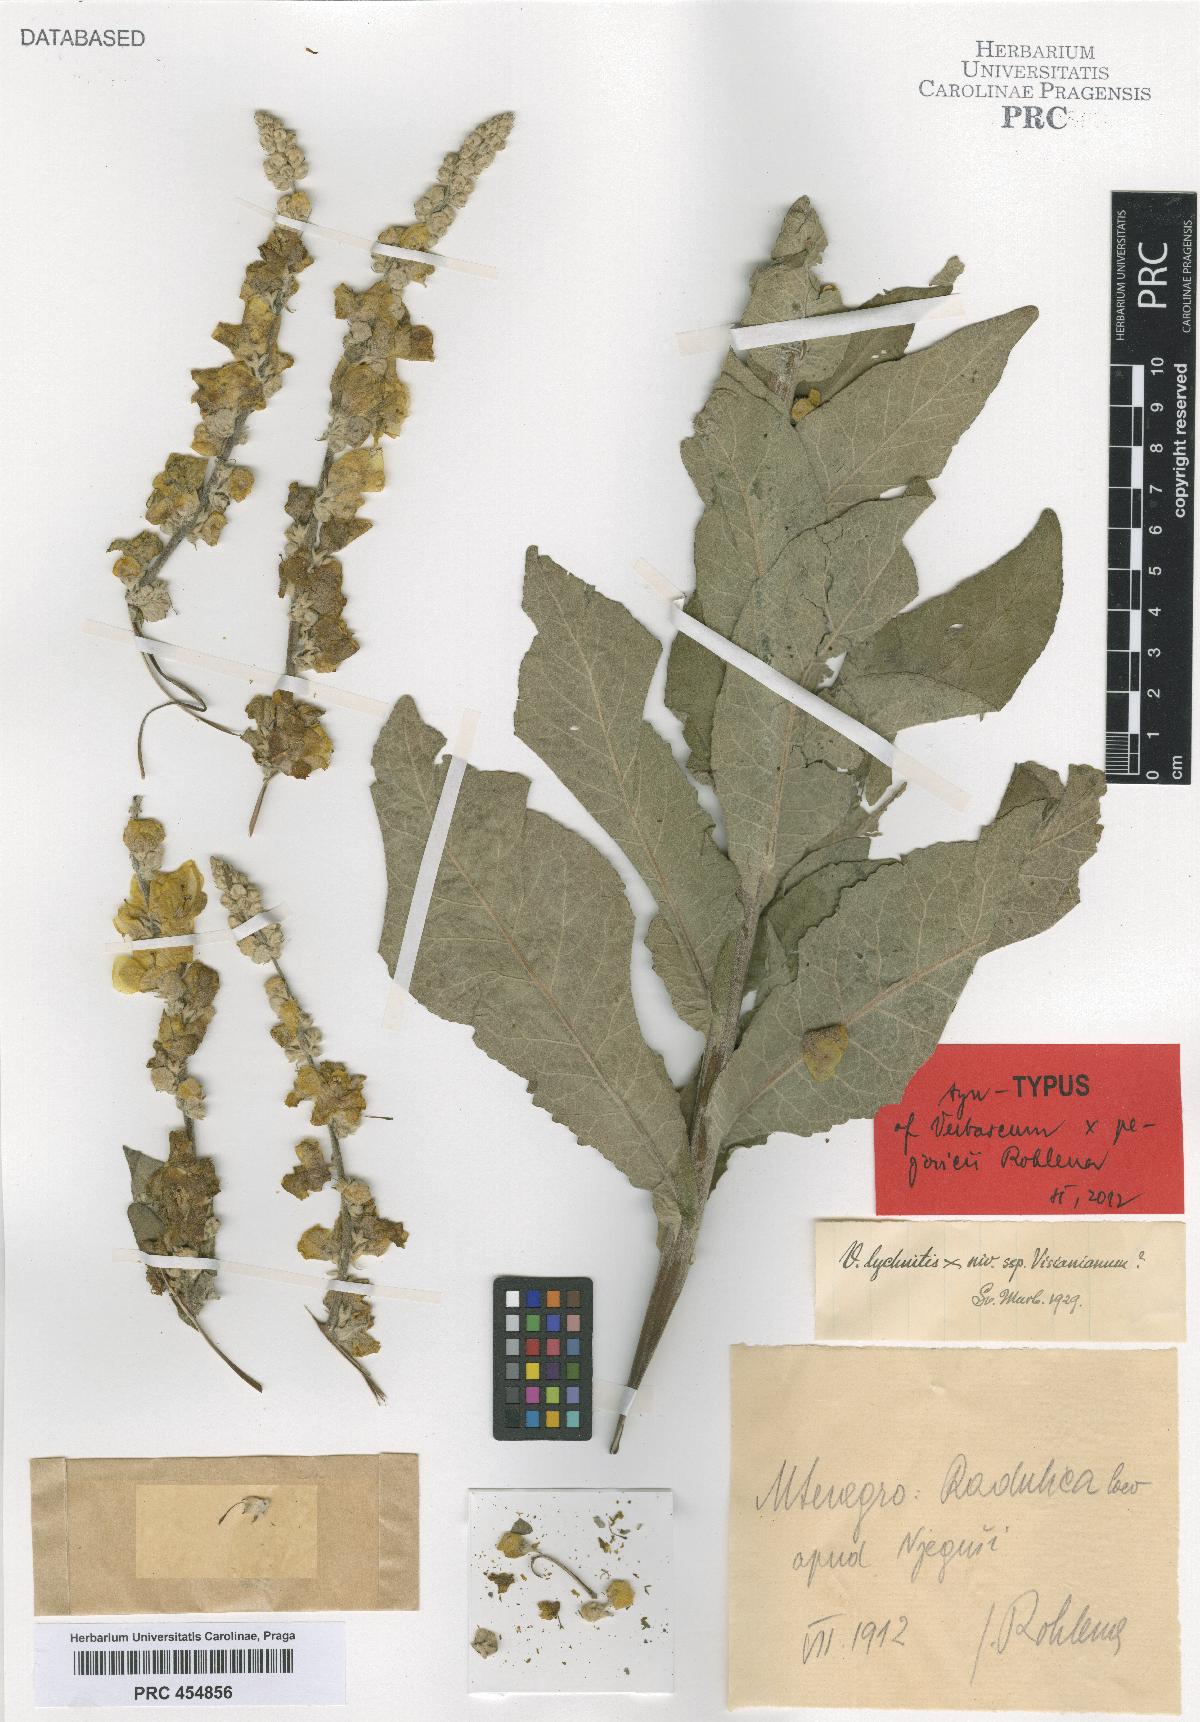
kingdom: Plantae
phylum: Tracheophyta
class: Magnoliopsida
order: Lamiales
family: Scrophulariaceae
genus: Verbascum
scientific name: Verbascum congestum
